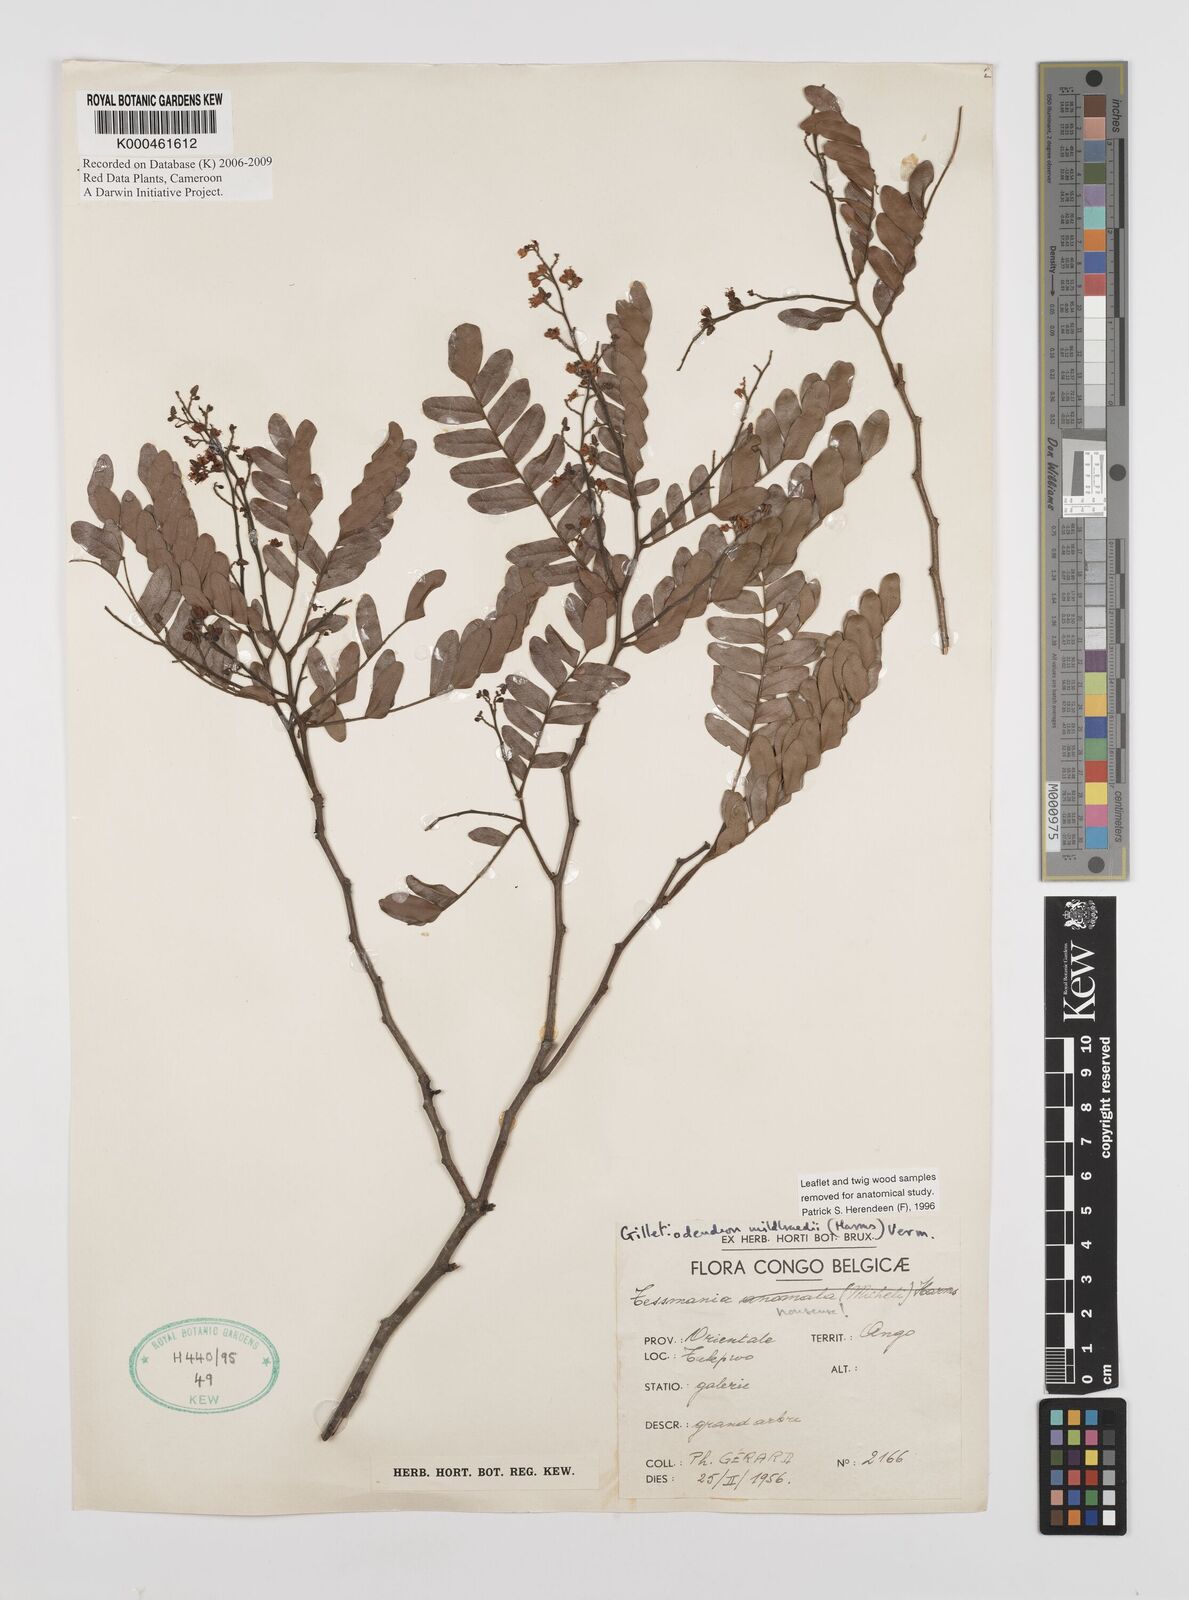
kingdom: Plantae
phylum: Tracheophyta
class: Magnoliopsida
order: Fabales
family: Fabaceae
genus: Gilletiodendron
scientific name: Gilletiodendron mildbraedii
